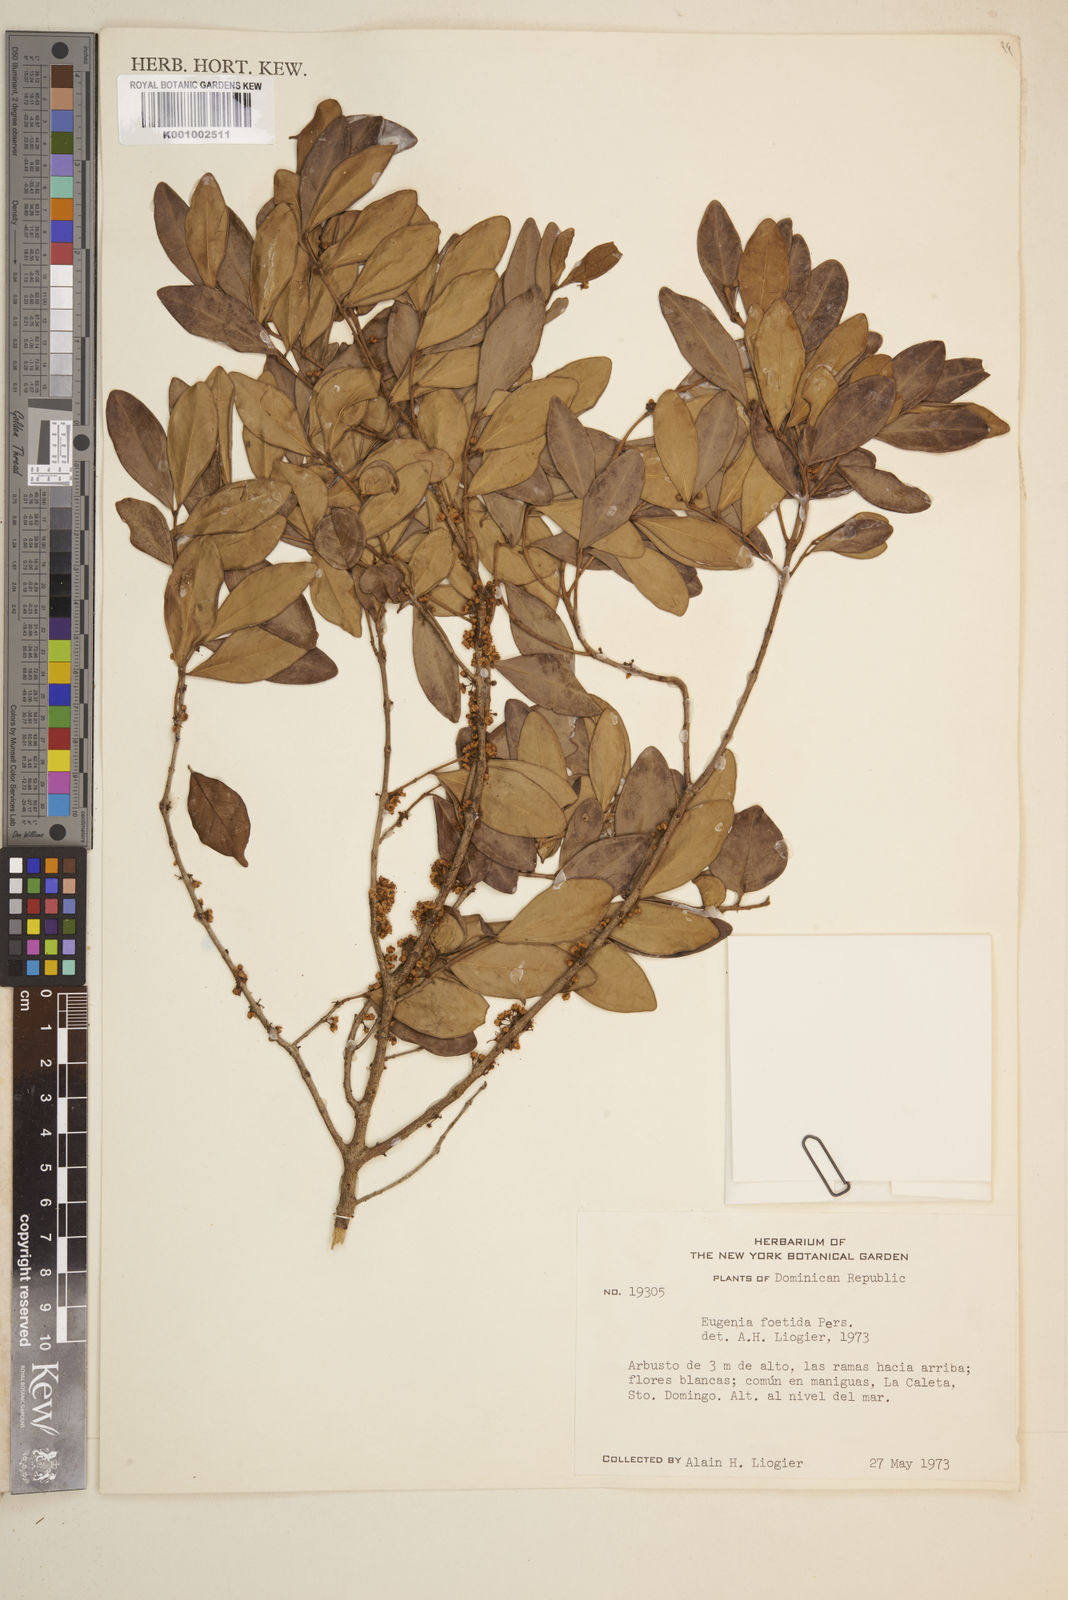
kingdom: Plantae
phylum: Tracheophyta
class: Magnoliopsida
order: Myrtales
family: Myrtaceae
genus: Eugenia
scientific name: Eugenia foetida
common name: White wattling
